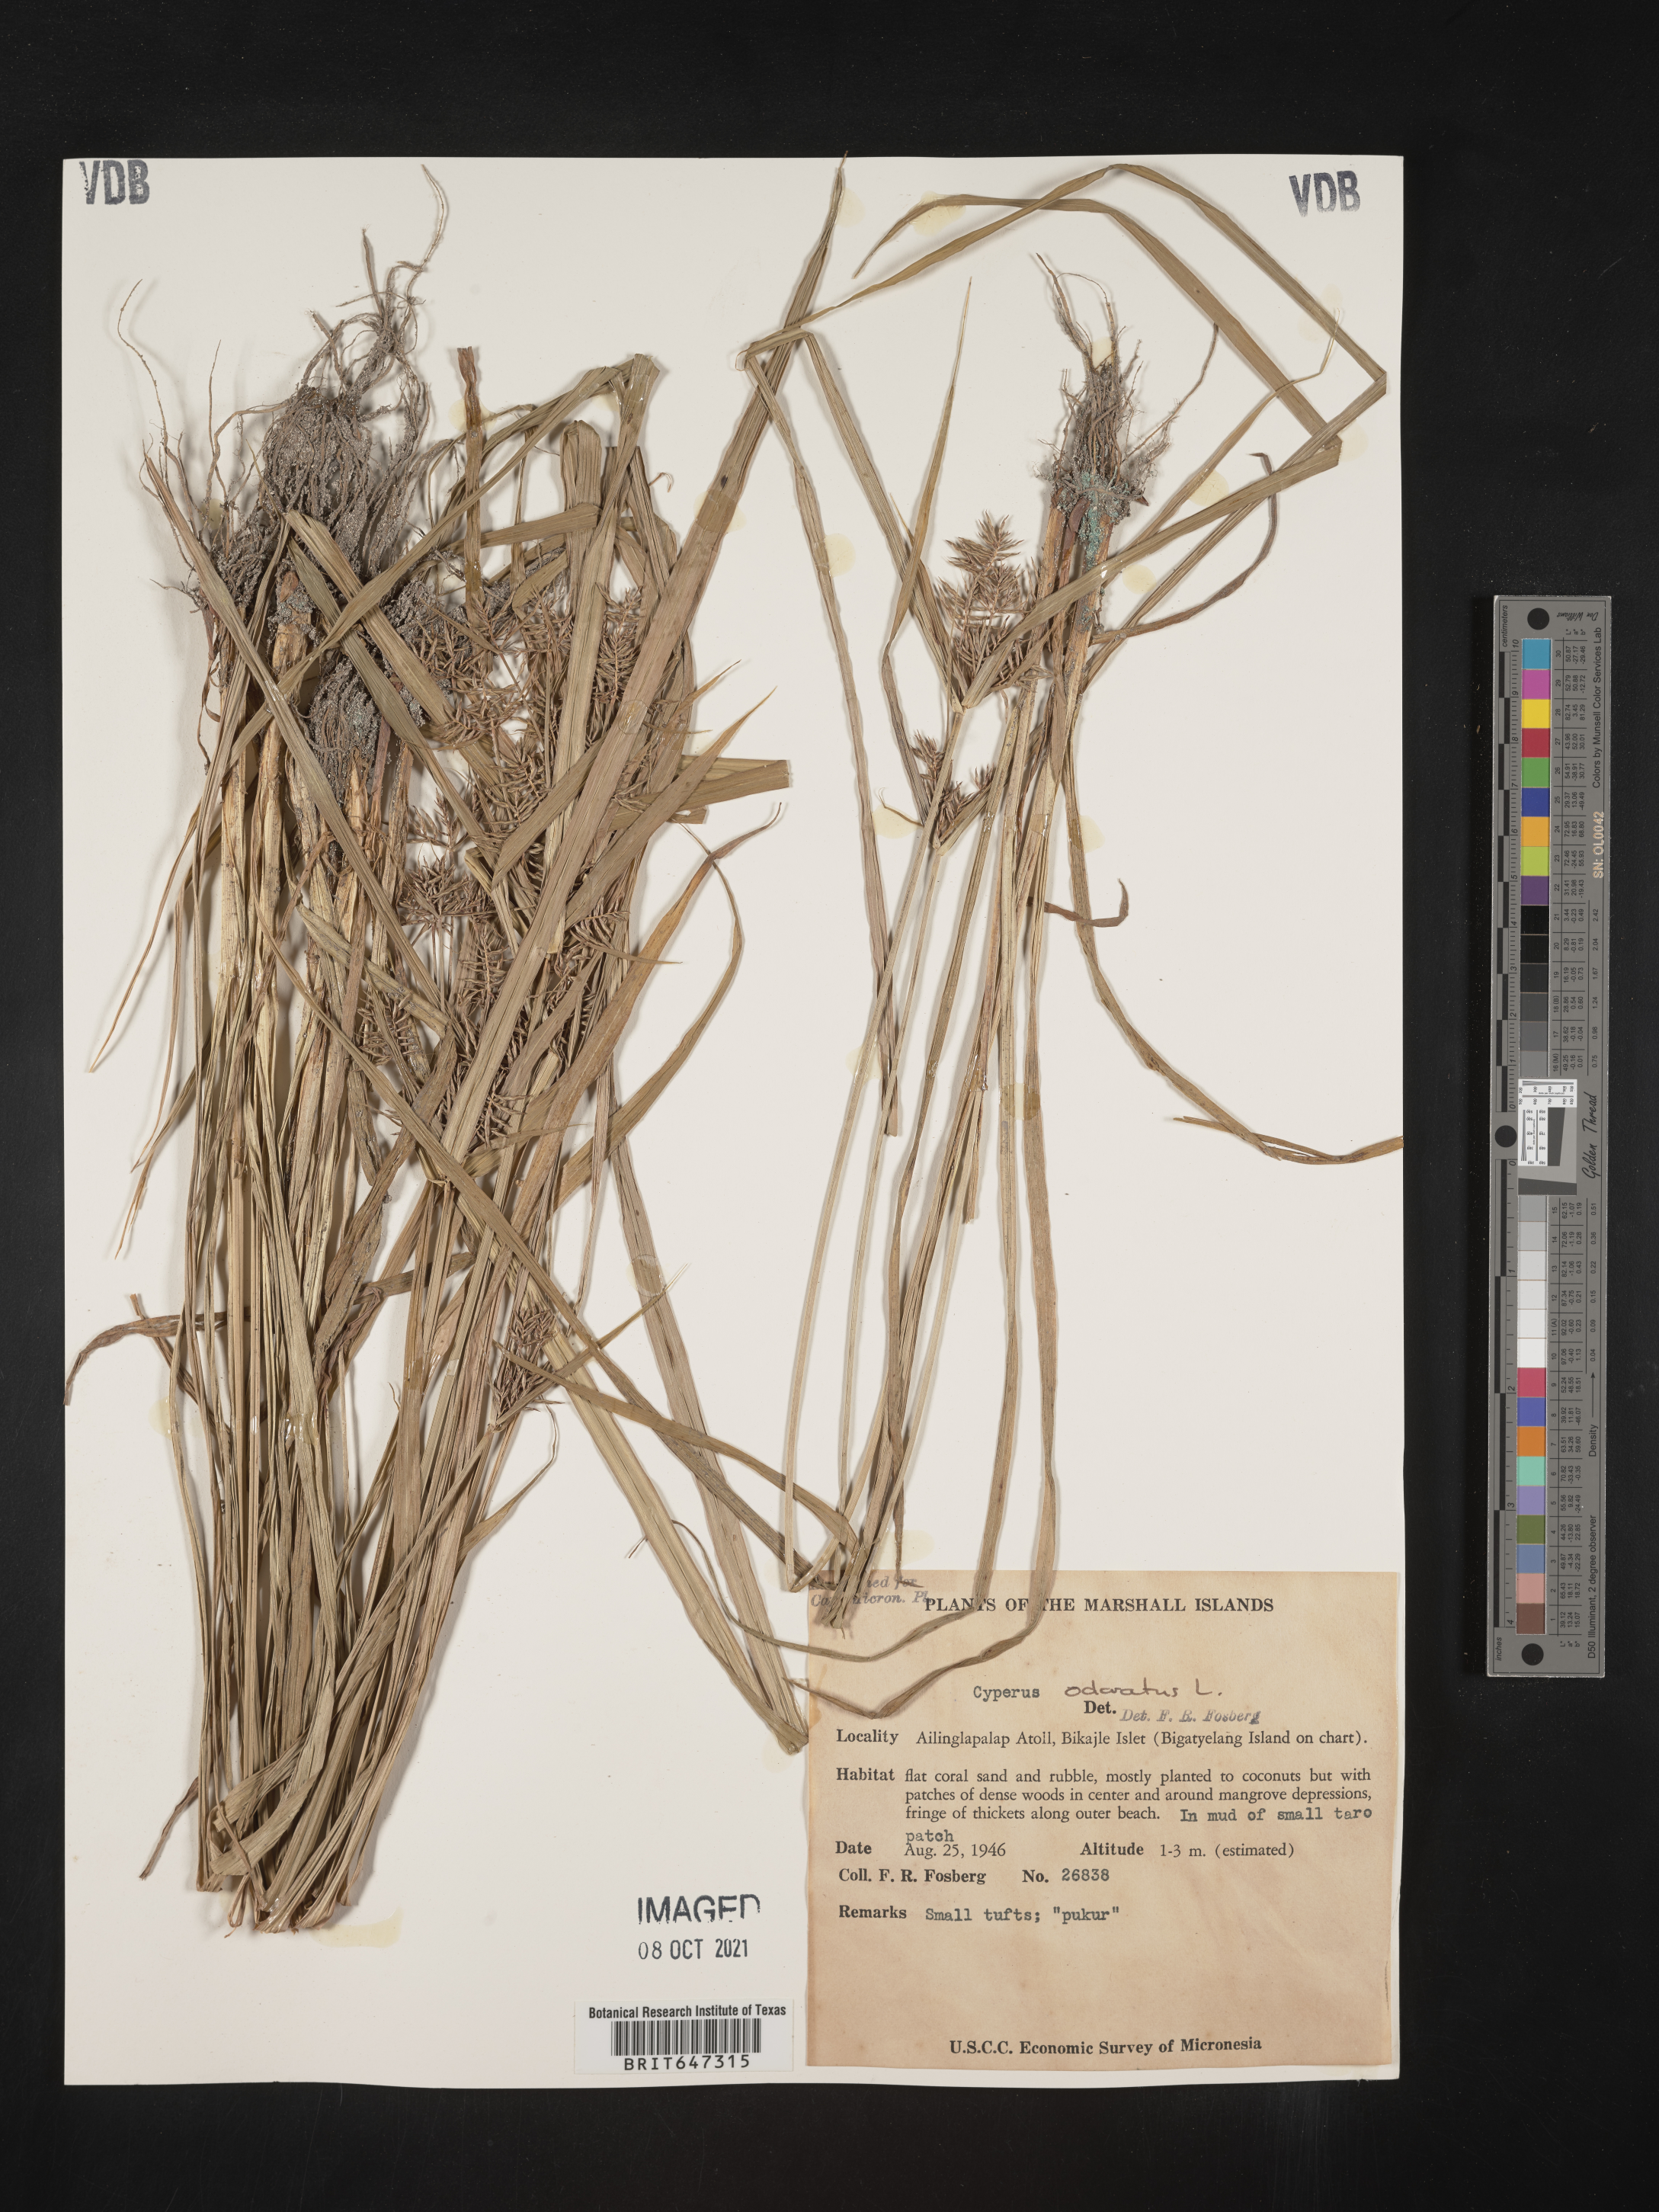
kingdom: Plantae
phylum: Tracheophyta
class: Liliopsida
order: Poales
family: Cyperaceae
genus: Cyperus
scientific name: Cyperus odoratus
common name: Fragrant flatsedge
